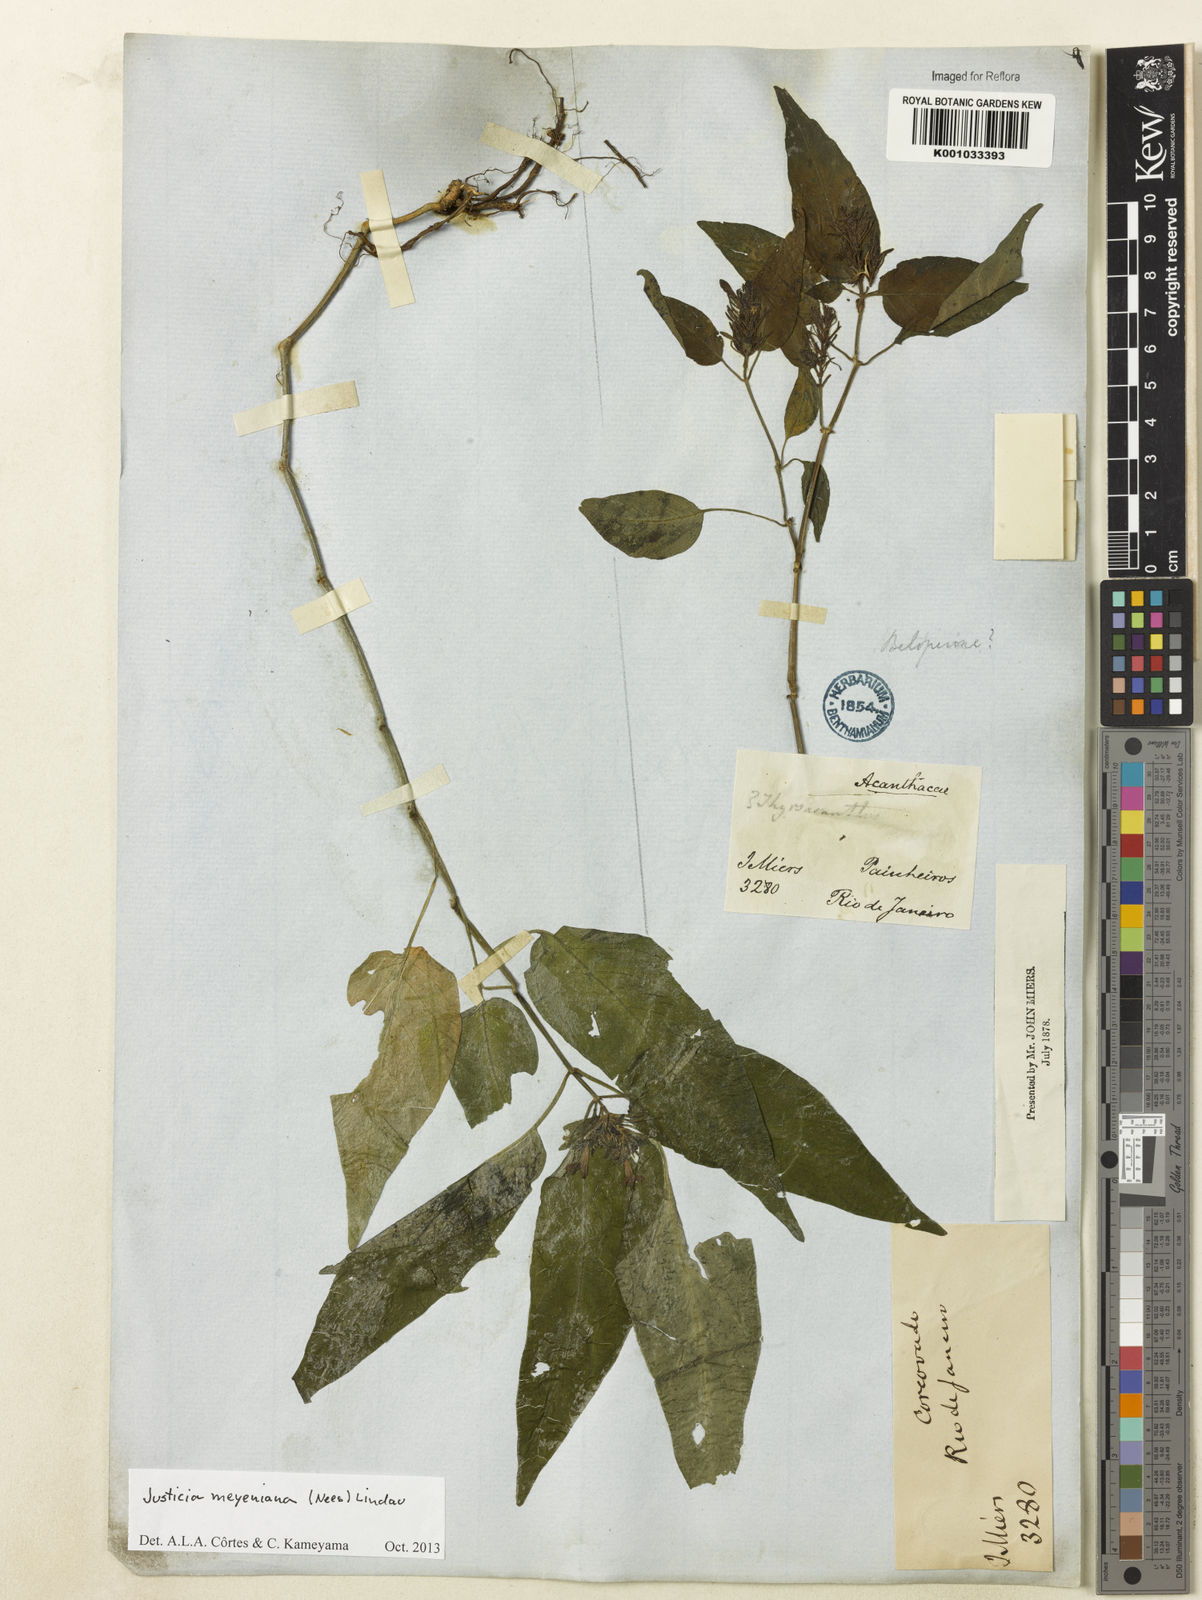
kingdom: Plantae
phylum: Tracheophyta
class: Magnoliopsida
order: Lamiales
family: Acanthaceae
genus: Justicia
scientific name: Justicia meyeniana
